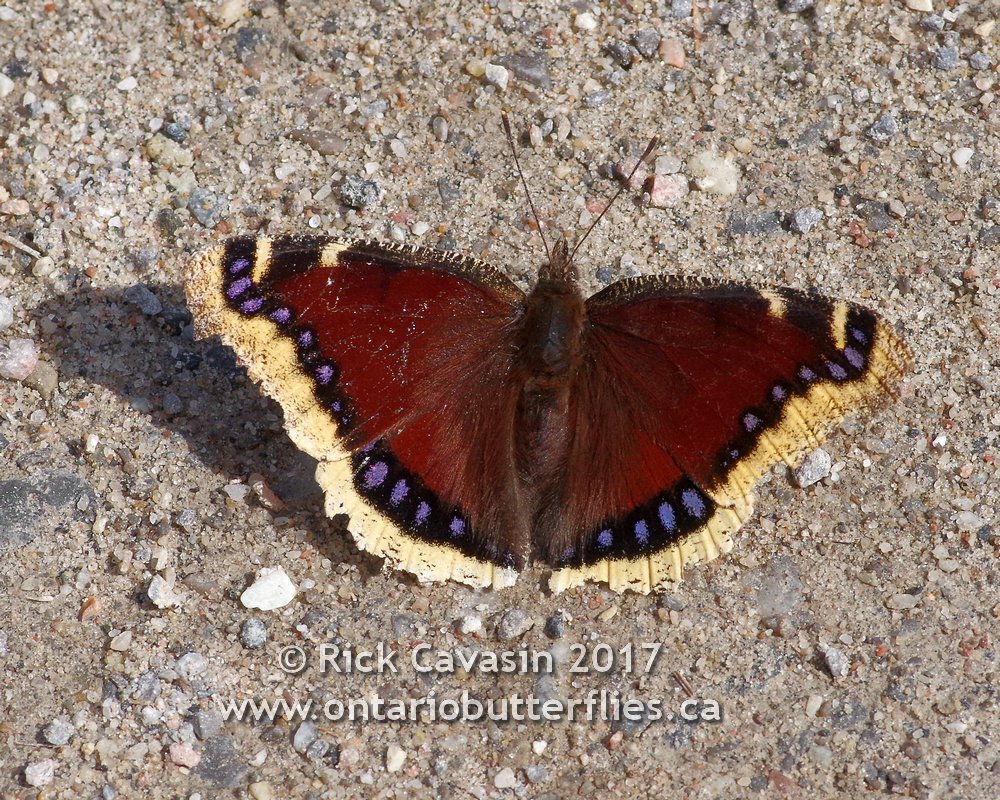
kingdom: Animalia
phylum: Arthropoda
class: Insecta
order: Lepidoptera
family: Nymphalidae
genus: Nymphalis
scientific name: Nymphalis antiopa
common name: Mourning Cloak
